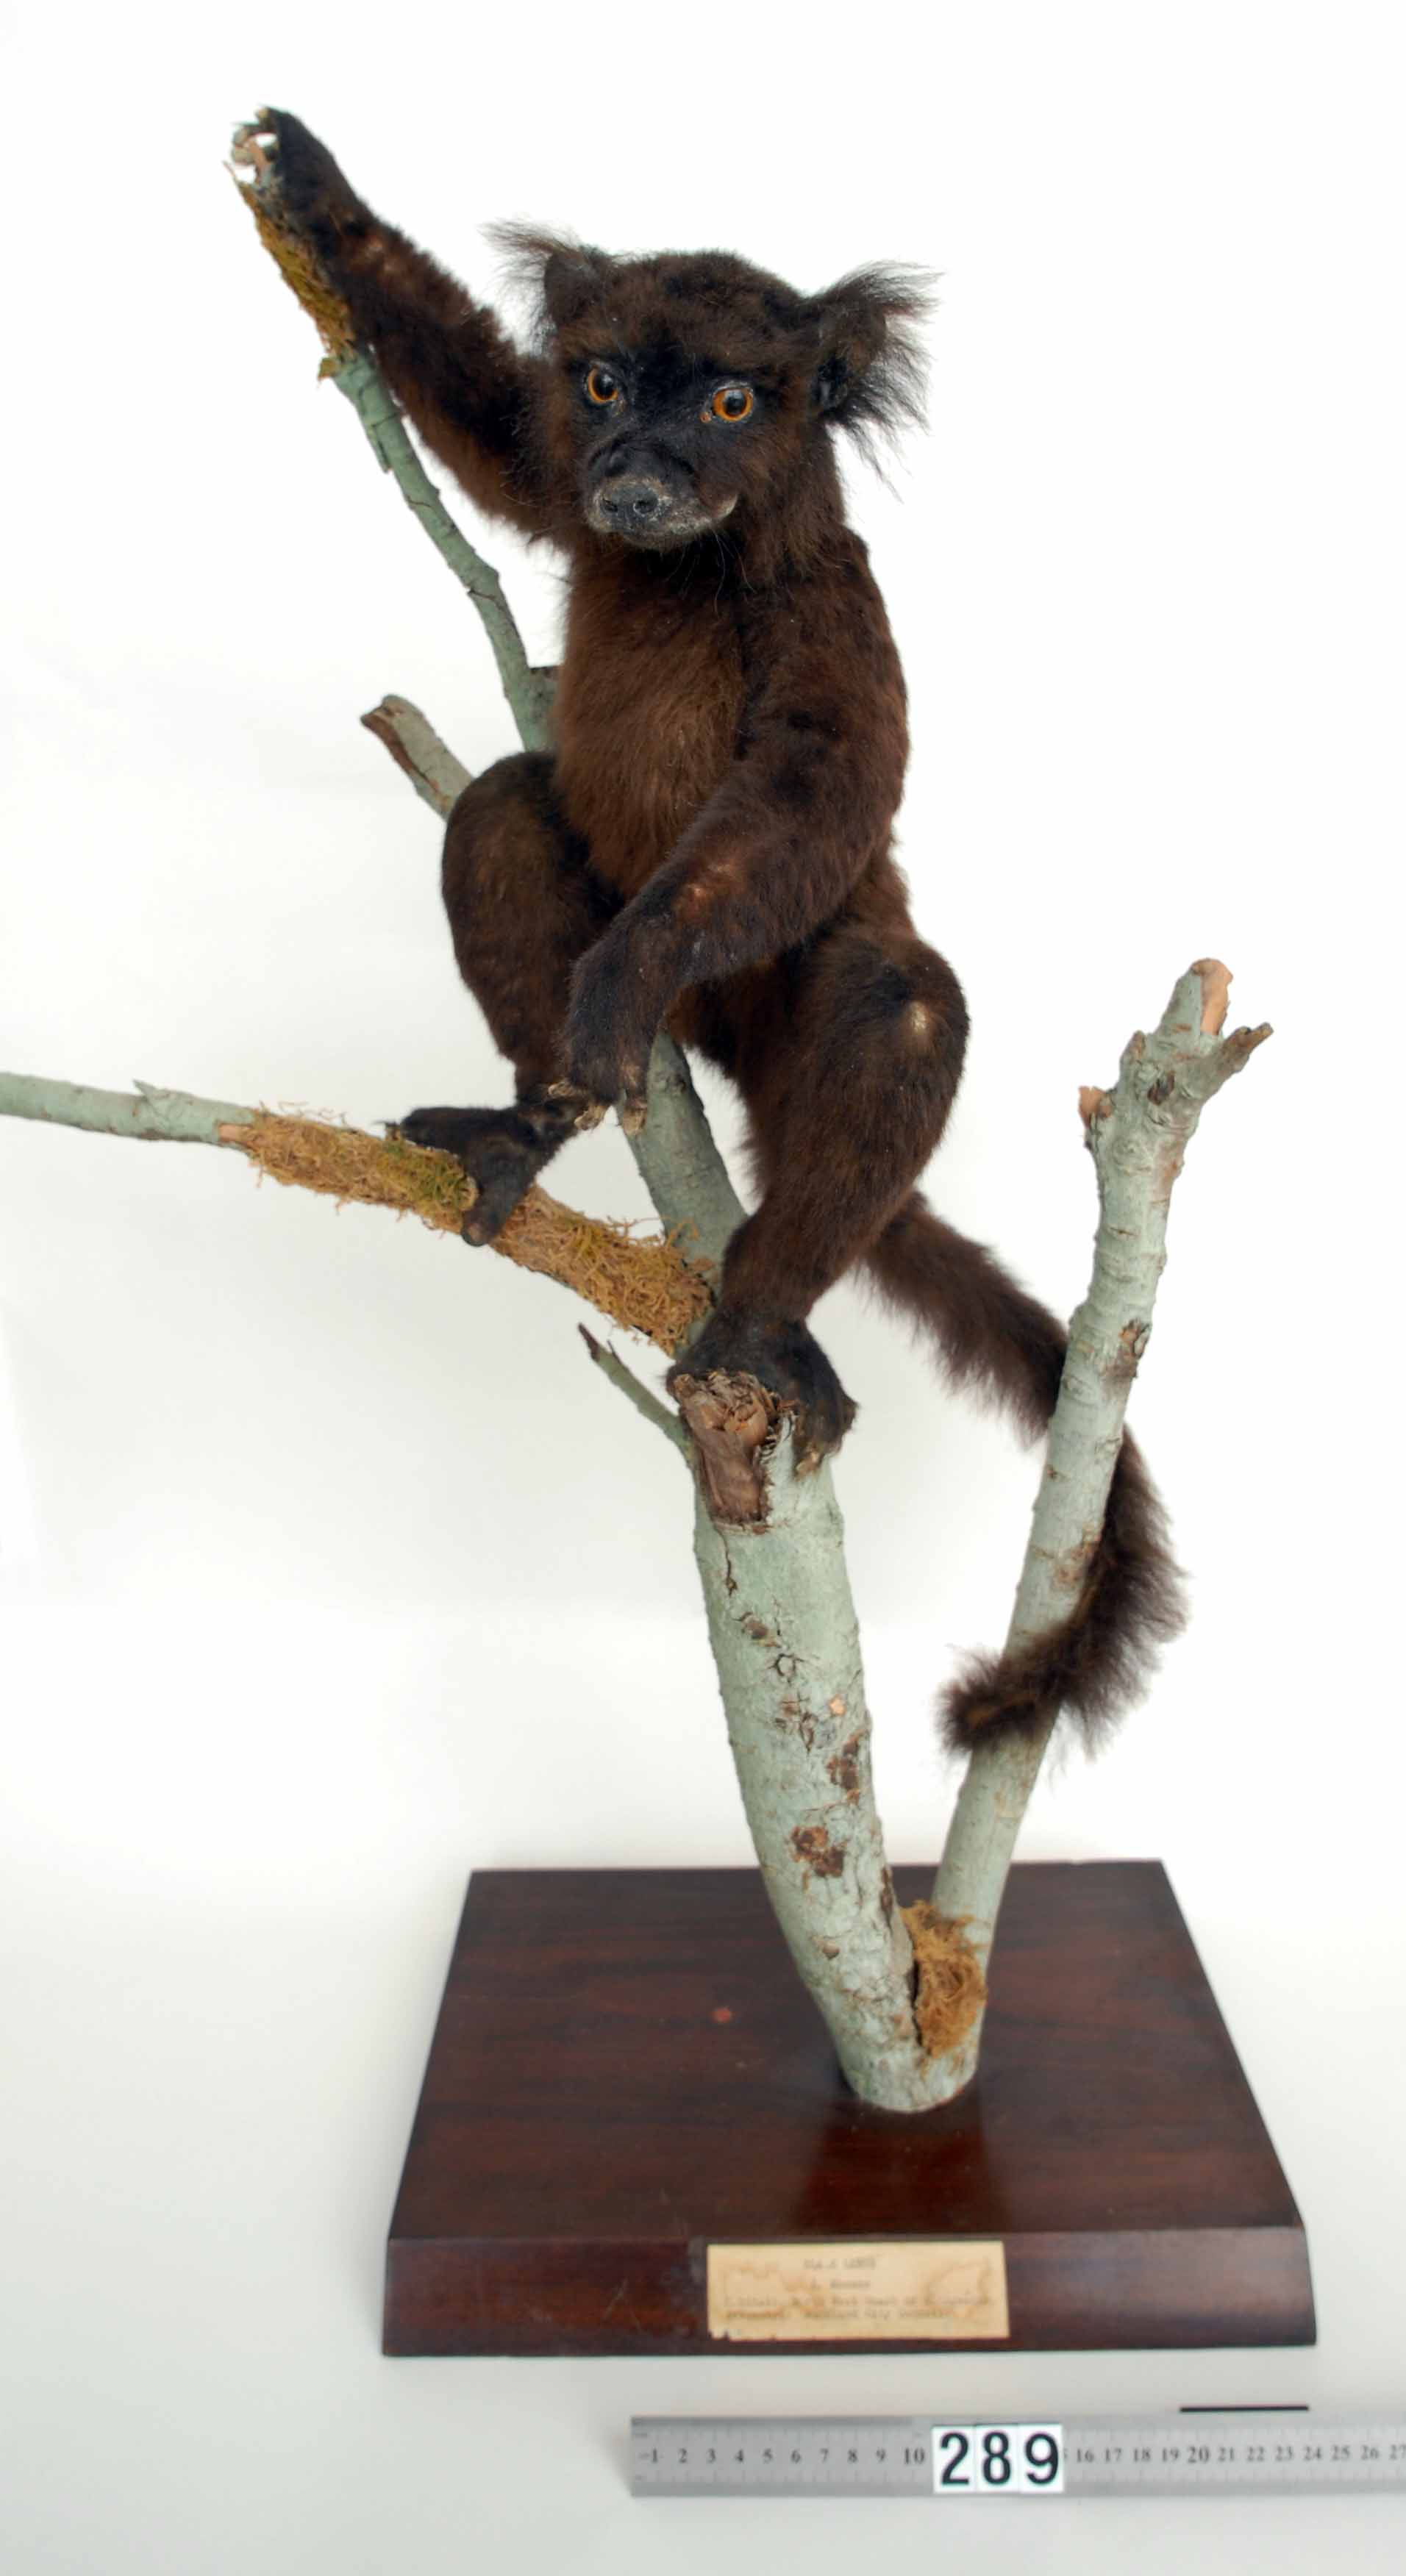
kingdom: Animalia
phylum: Chordata
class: Mammalia
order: Primates
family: Lemuridae
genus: Eulemur
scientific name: Eulemur macaco
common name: Black lemur
